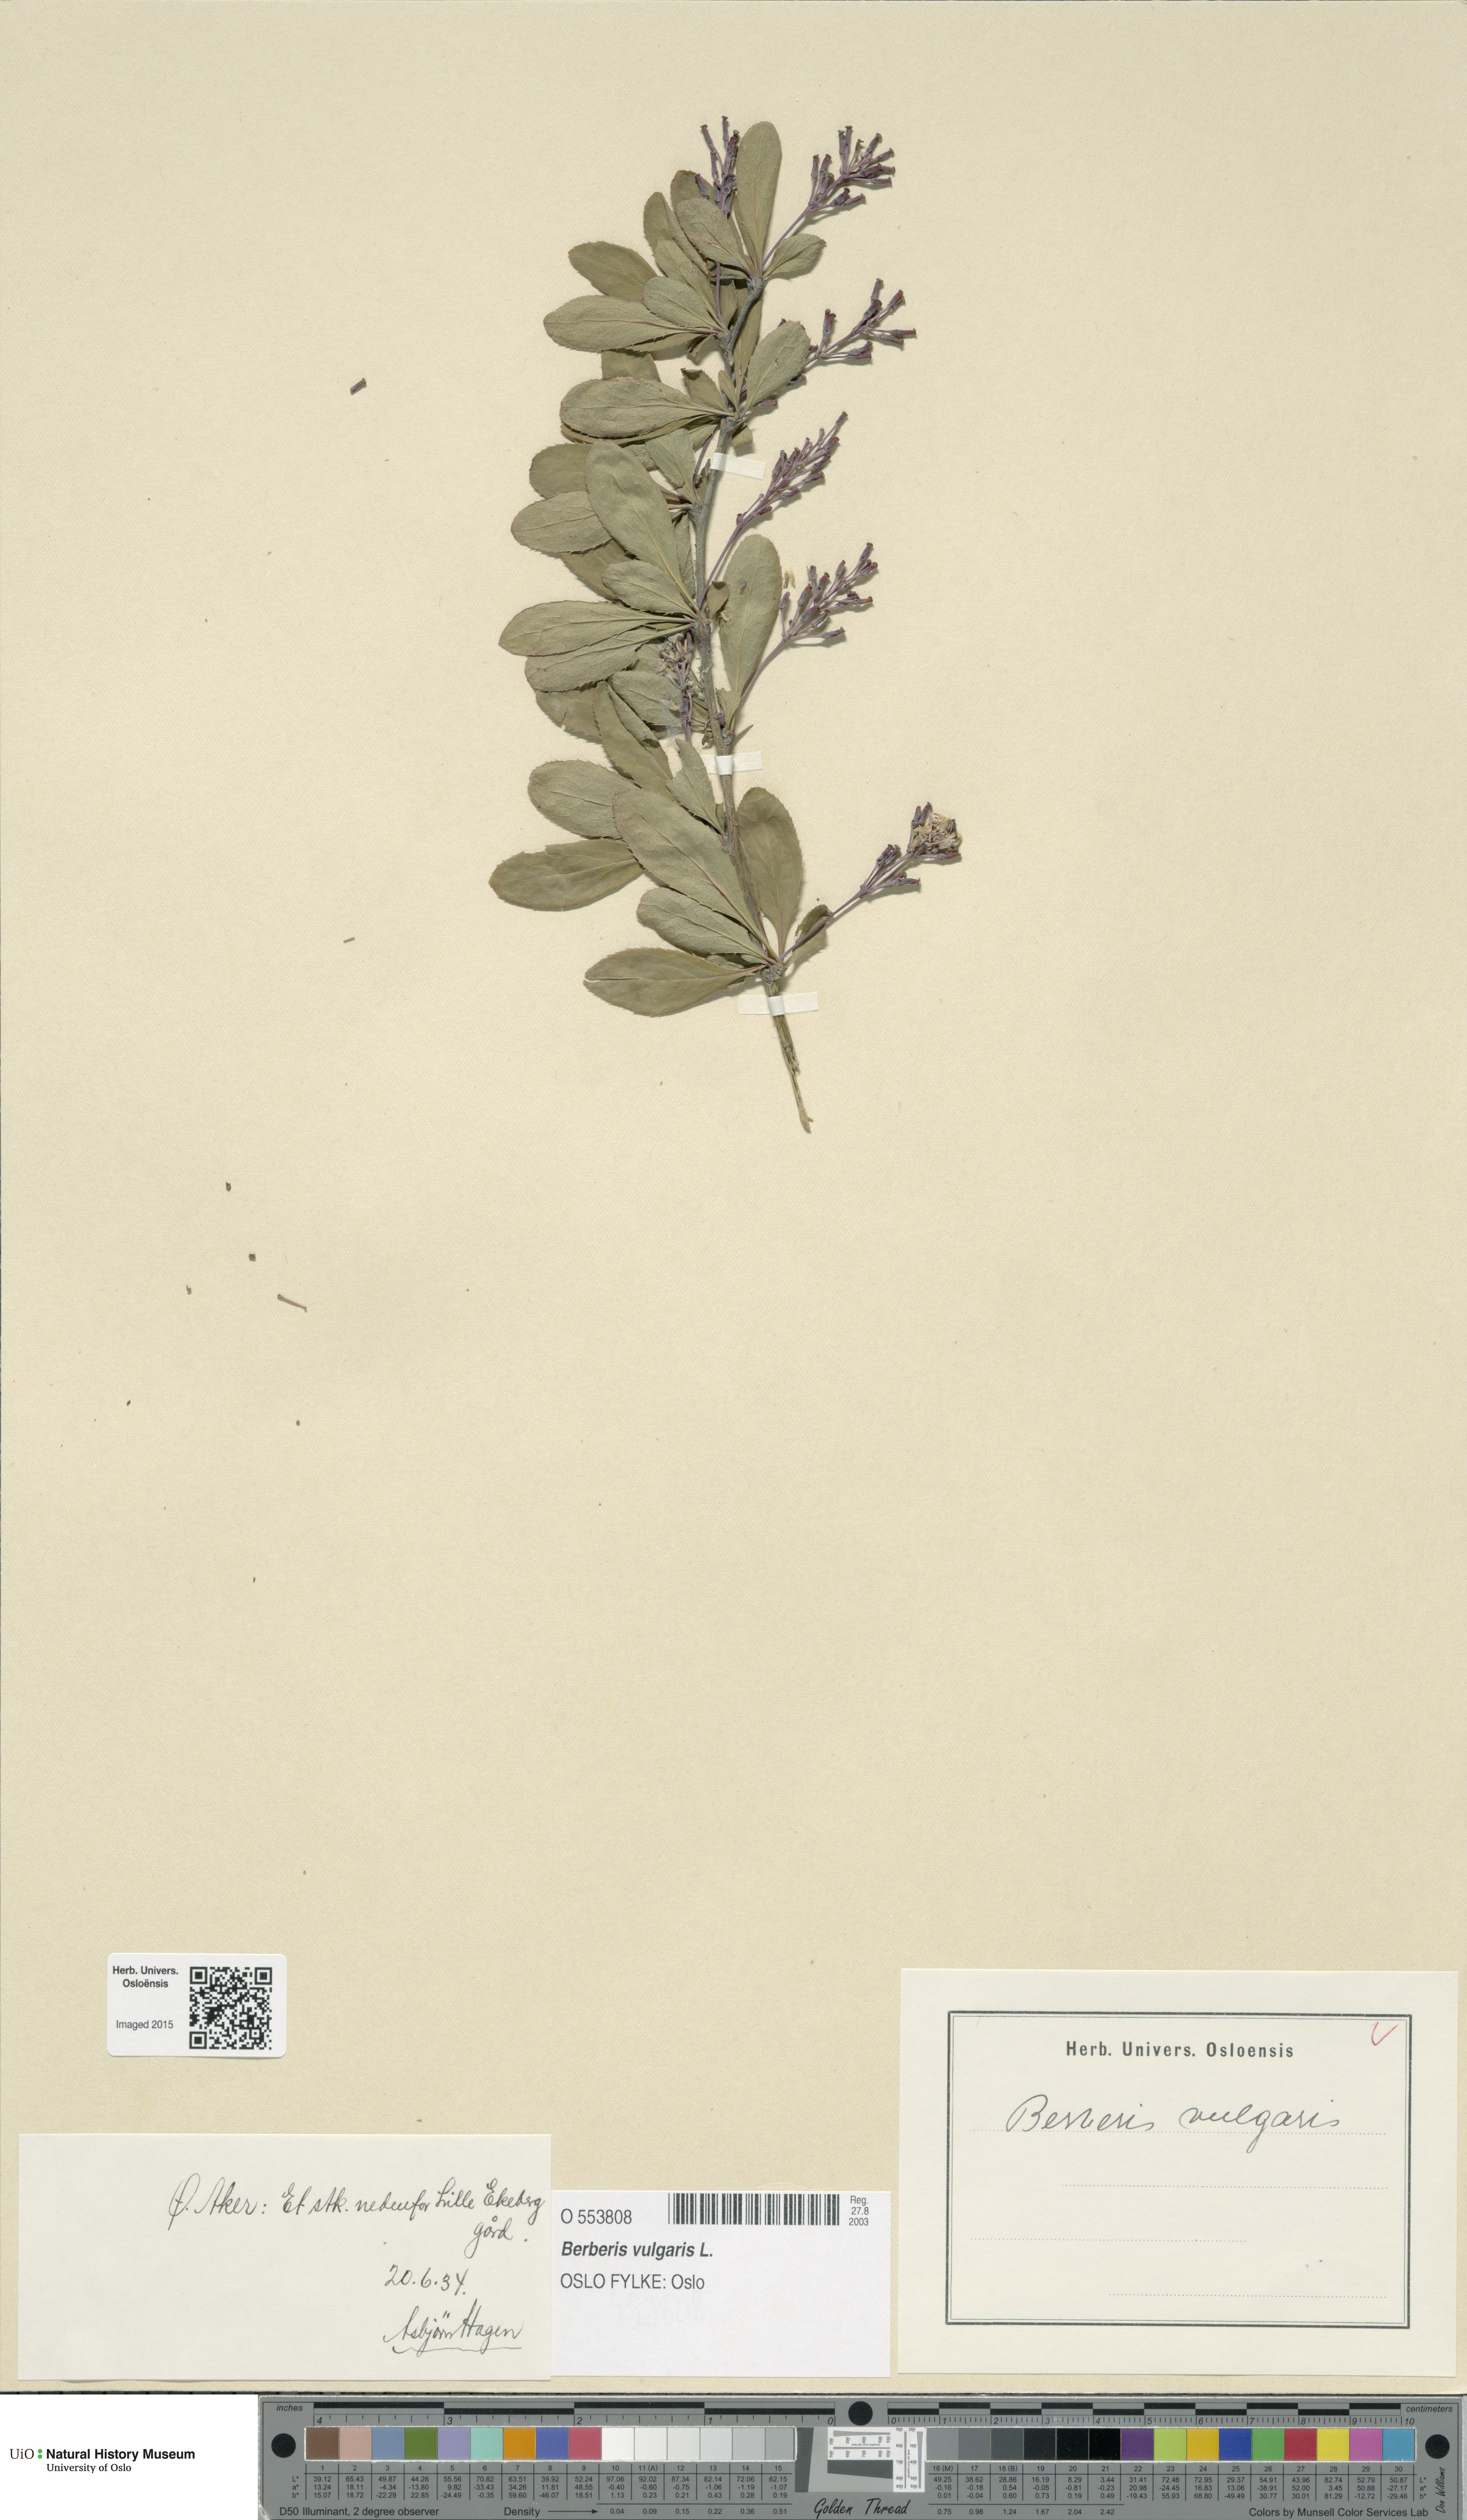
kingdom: Plantae
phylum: Tracheophyta
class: Magnoliopsida
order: Ranunculales
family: Berberidaceae
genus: Berberis
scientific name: Berberis vulgaris
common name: Barberry
